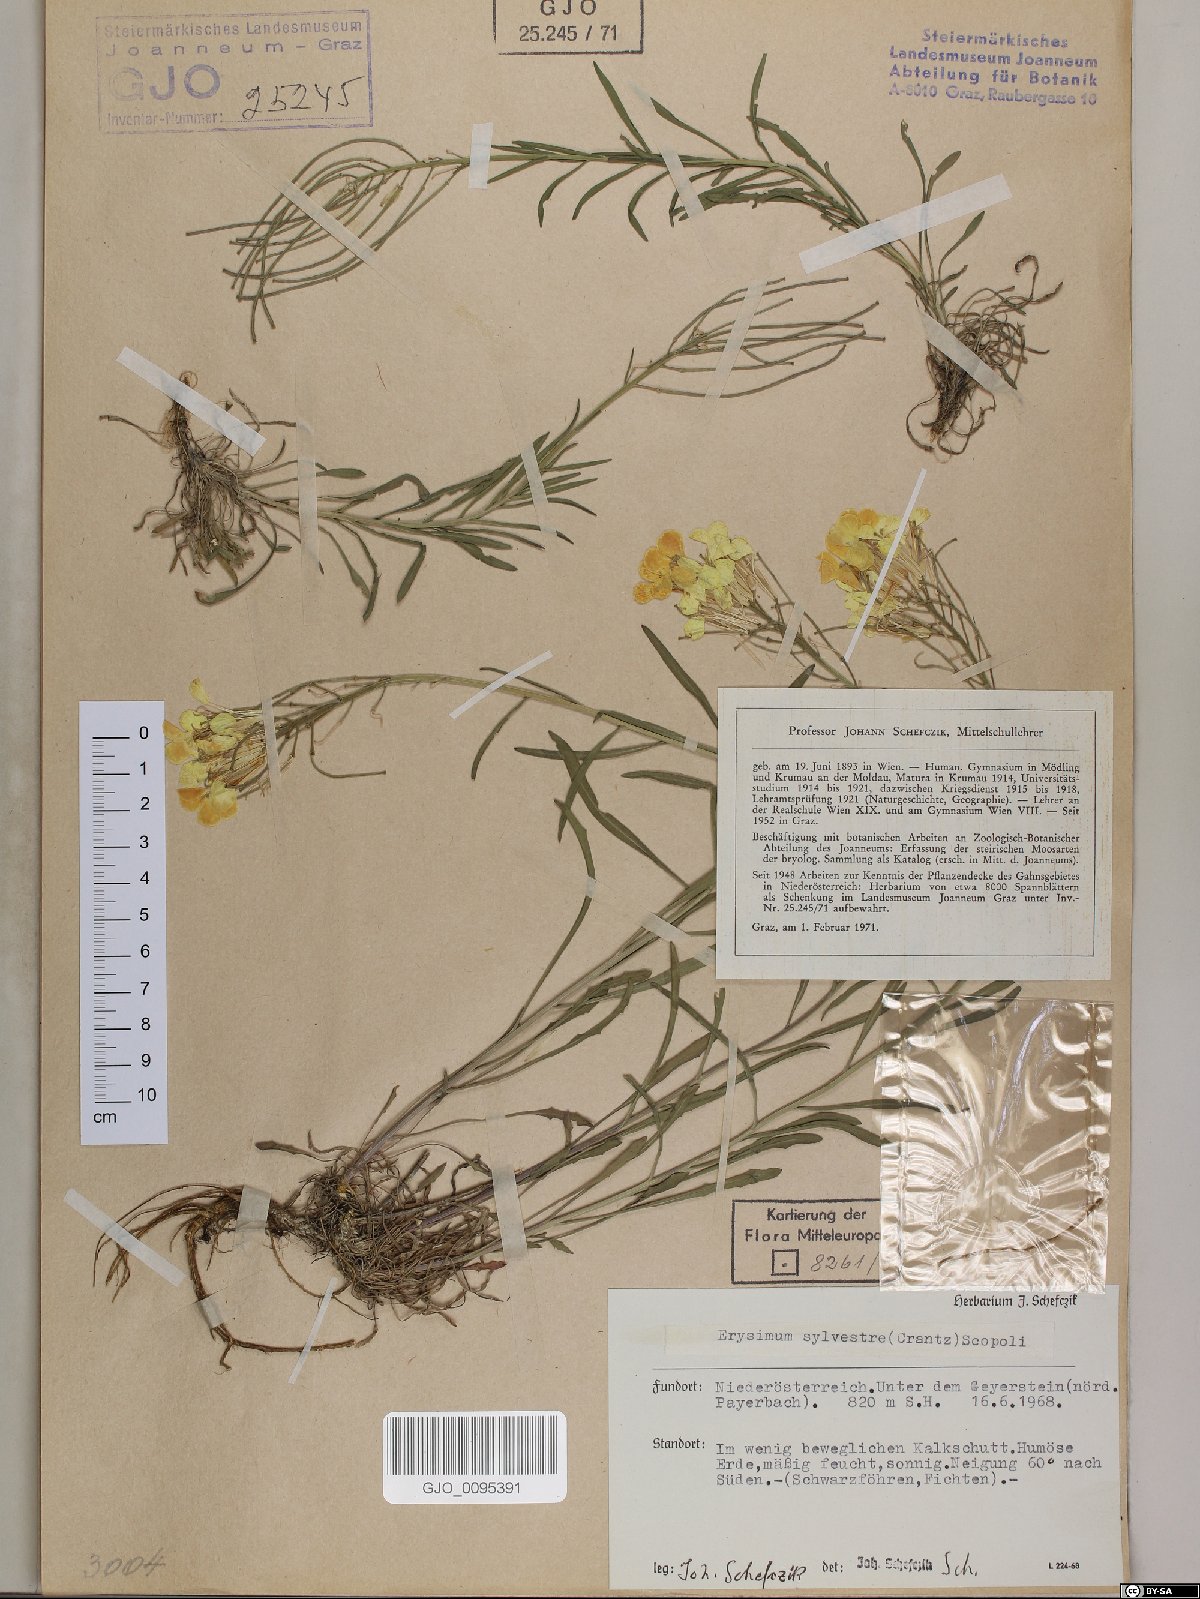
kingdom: Plantae
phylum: Tracheophyta
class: Magnoliopsida
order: Brassicales
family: Brassicaceae
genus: Erysimum
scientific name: Erysimum sylvestre
